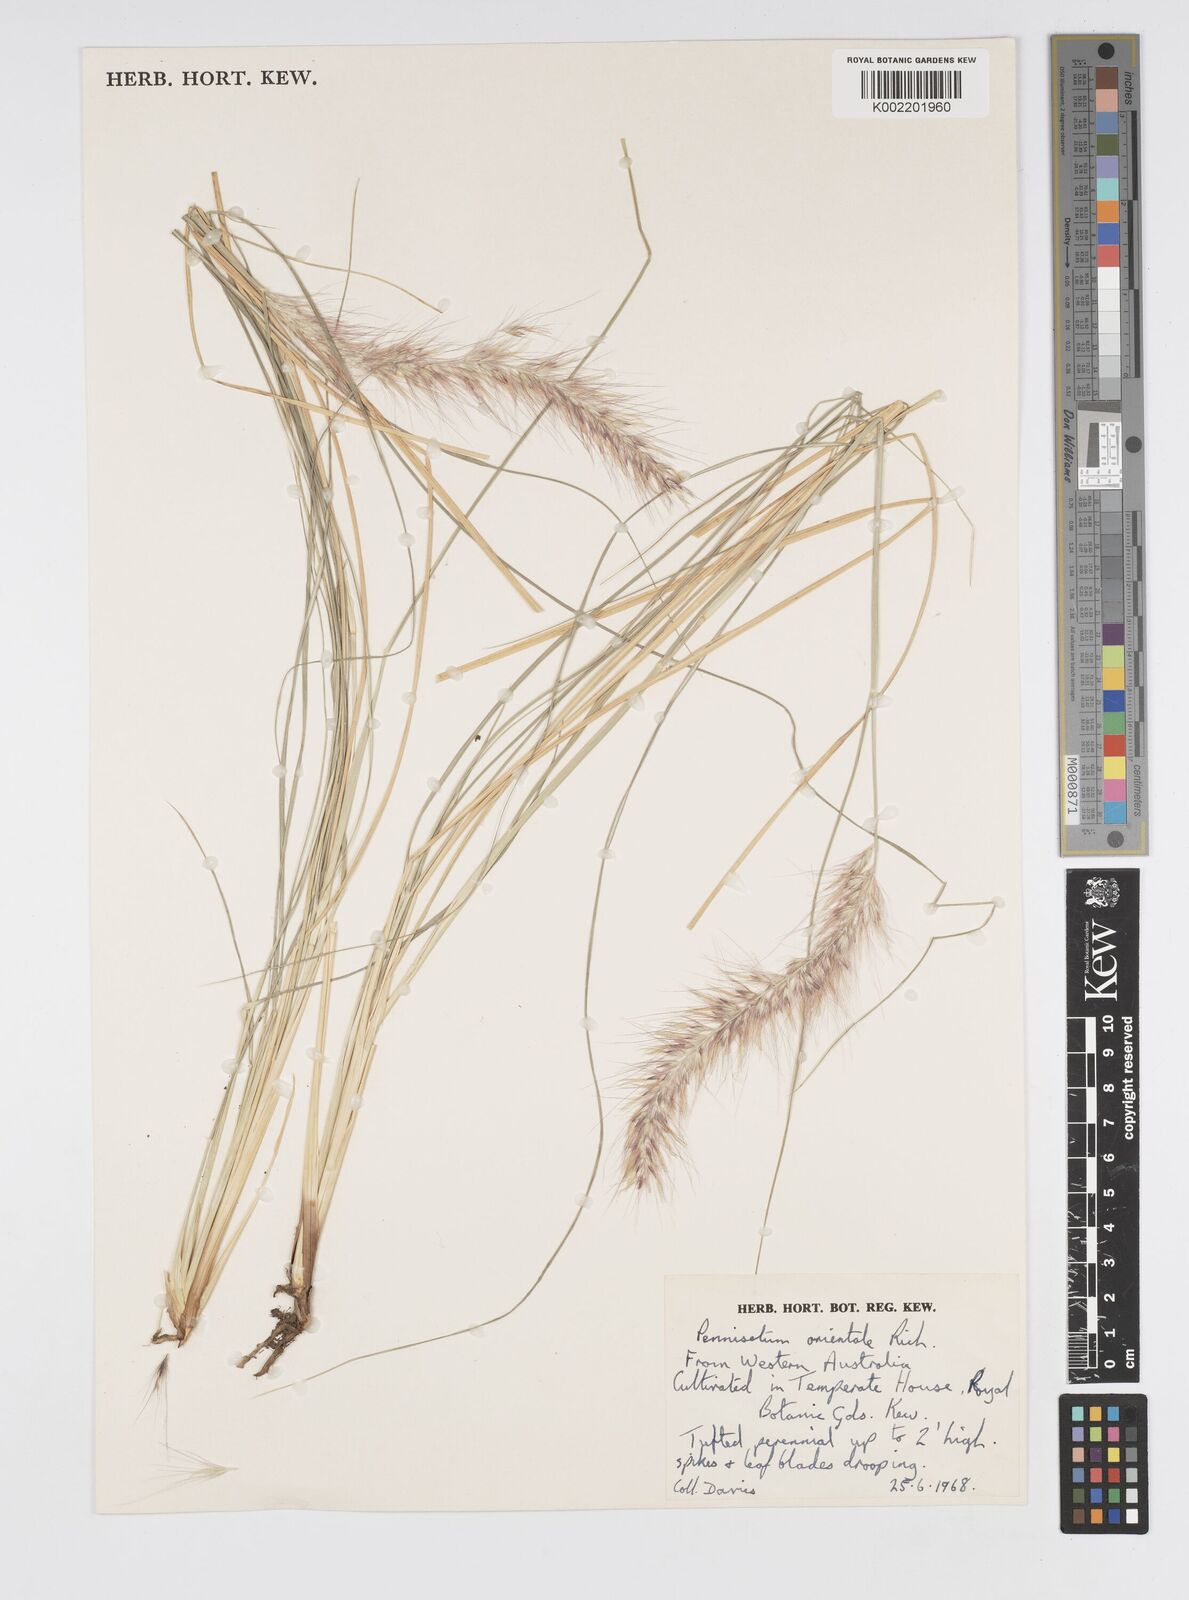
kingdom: Plantae
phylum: Tracheophyta
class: Liliopsida
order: Poales
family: Poaceae
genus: Cenchrus
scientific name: Cenchrus setaceus
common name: Crimson fountaingrass
